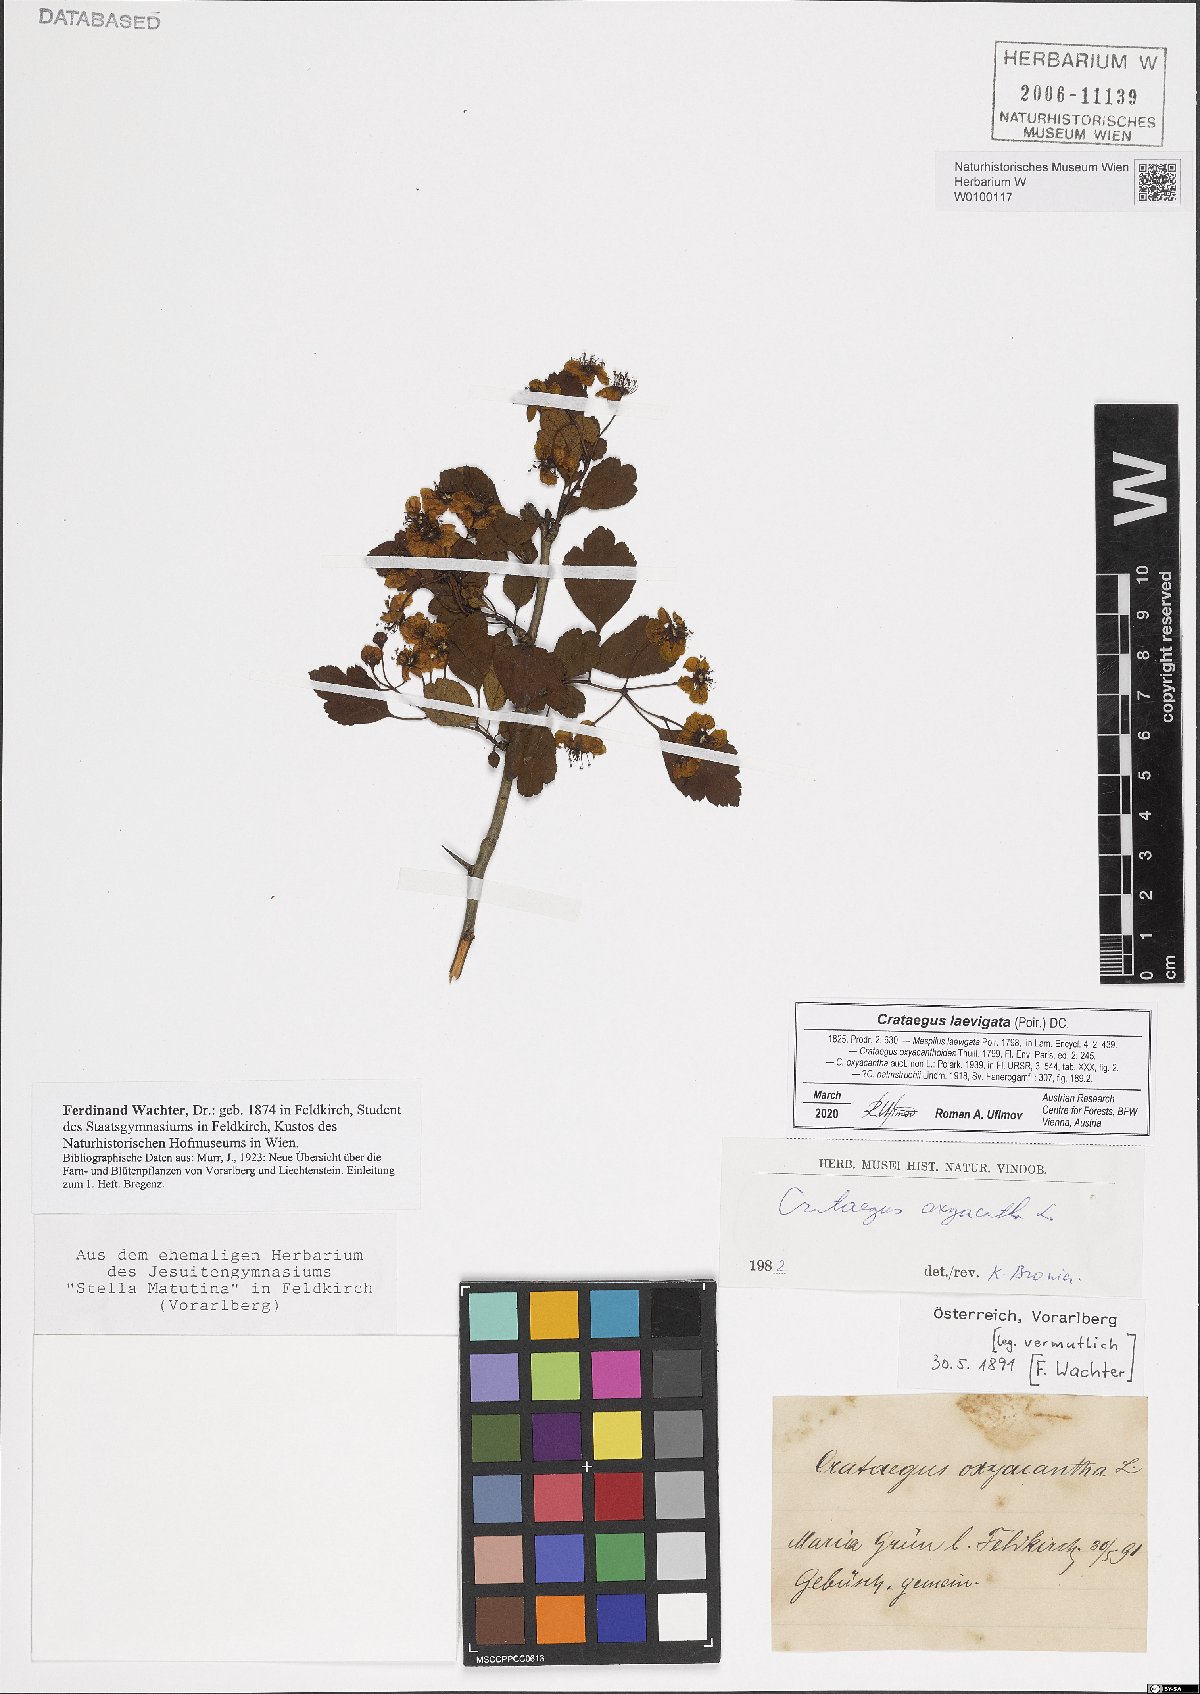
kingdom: Plantae
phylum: Tracheophyta
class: Magnoliopsida
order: Rosales
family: Rosaceae
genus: Crataegus
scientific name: Crataegus laevigata
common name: Midland hawthorn
